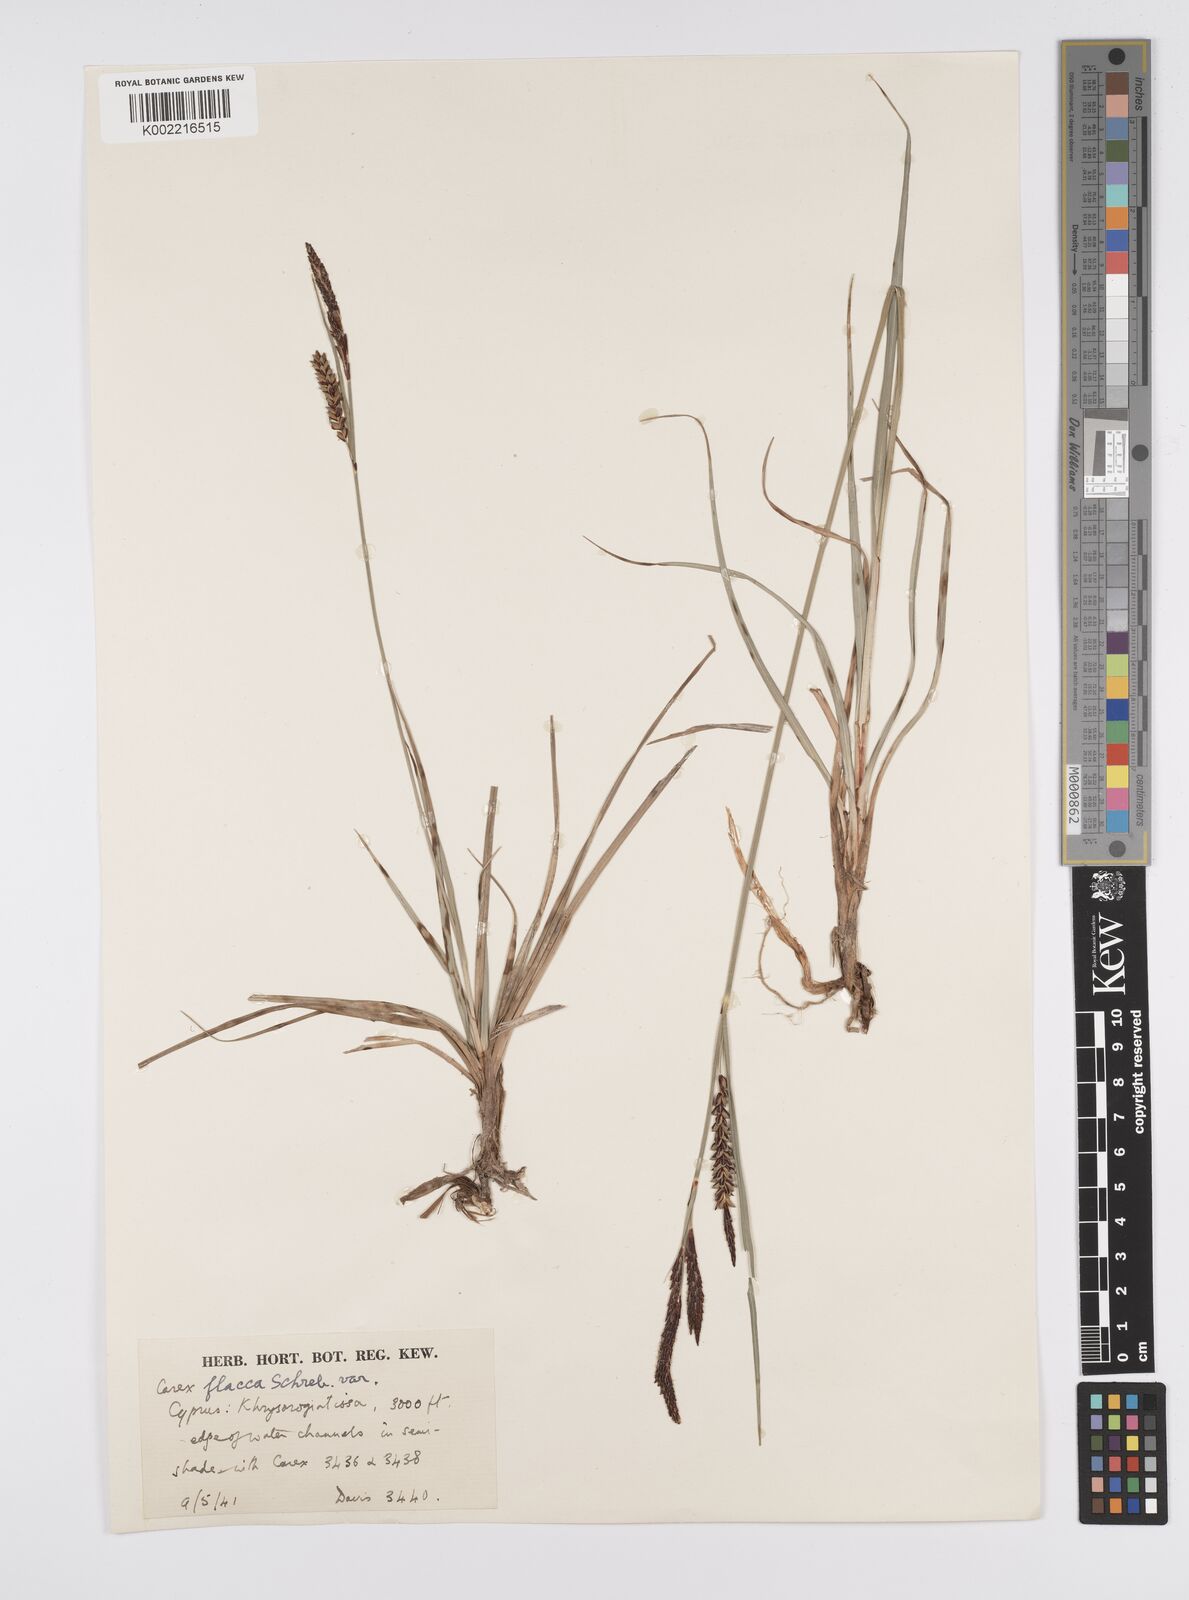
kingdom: Plantae
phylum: Tracheophyta
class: Liliopsida
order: Poales
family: Cyperaceae
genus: Carex
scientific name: Carex flacca
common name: Glaucous sedge
